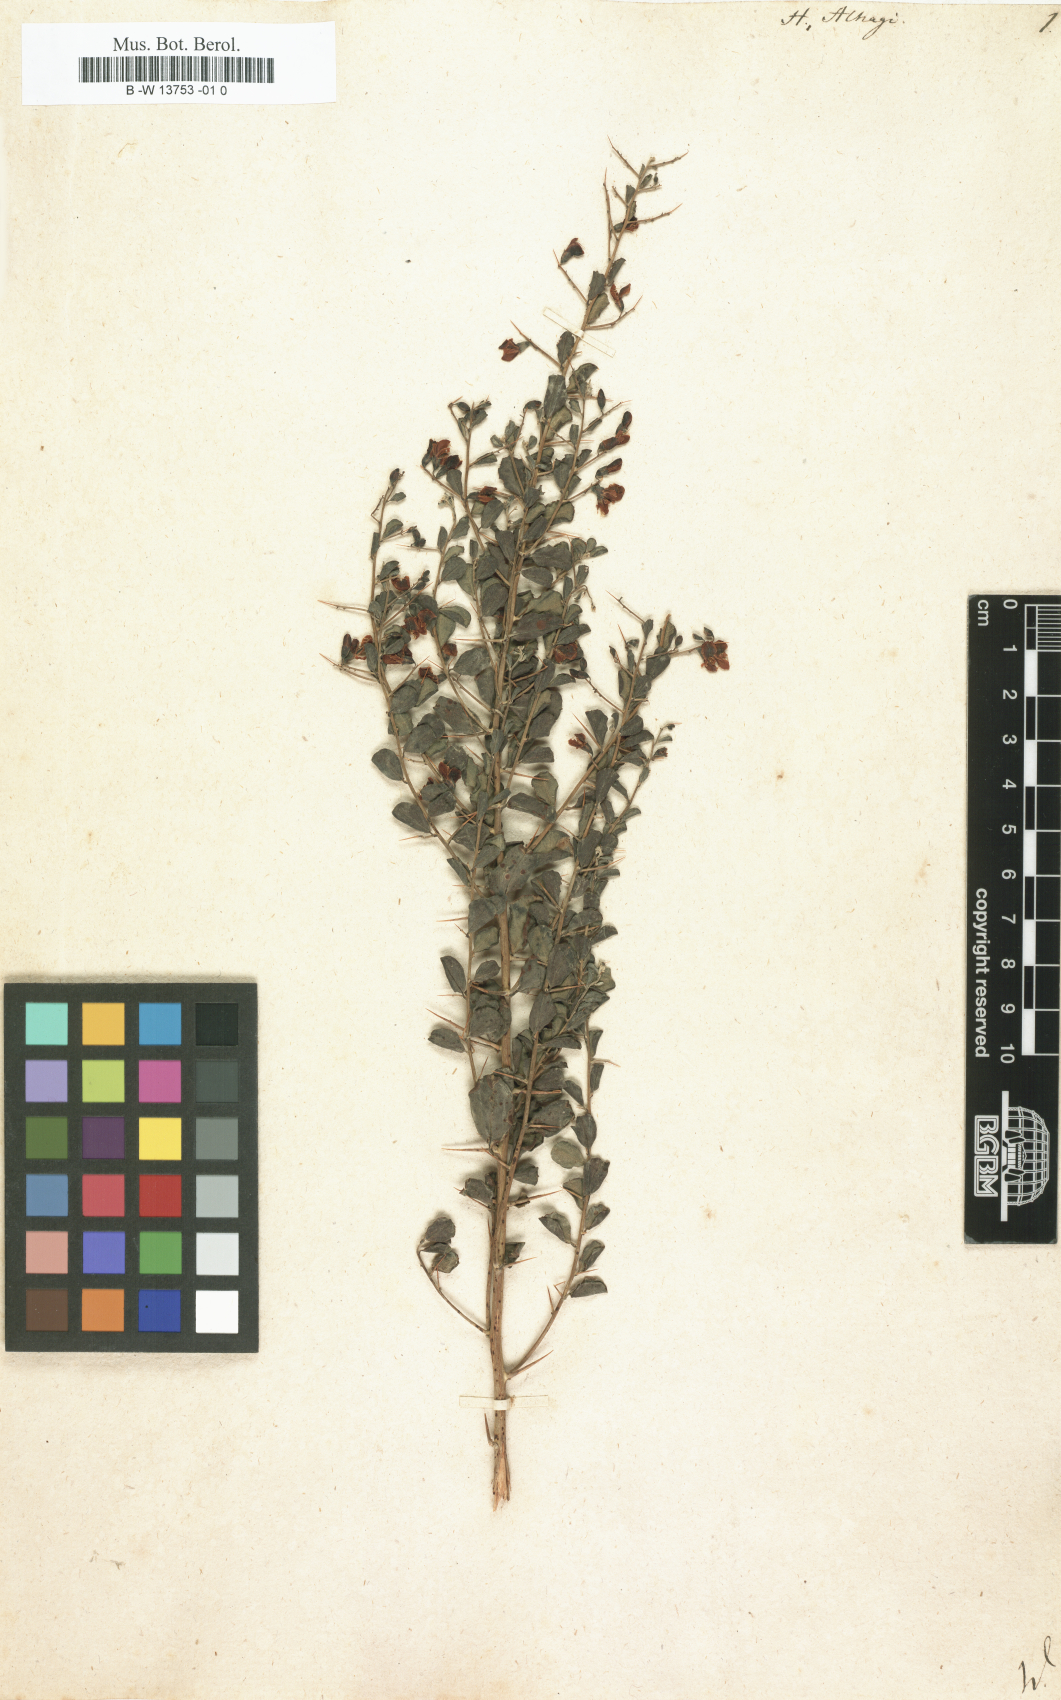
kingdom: Plantae
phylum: Tracheophyta
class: Magnoliopsida
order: Fabales
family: Fabaceae
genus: Alhagi
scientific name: Alhagi maurorum
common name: Camelthorn
